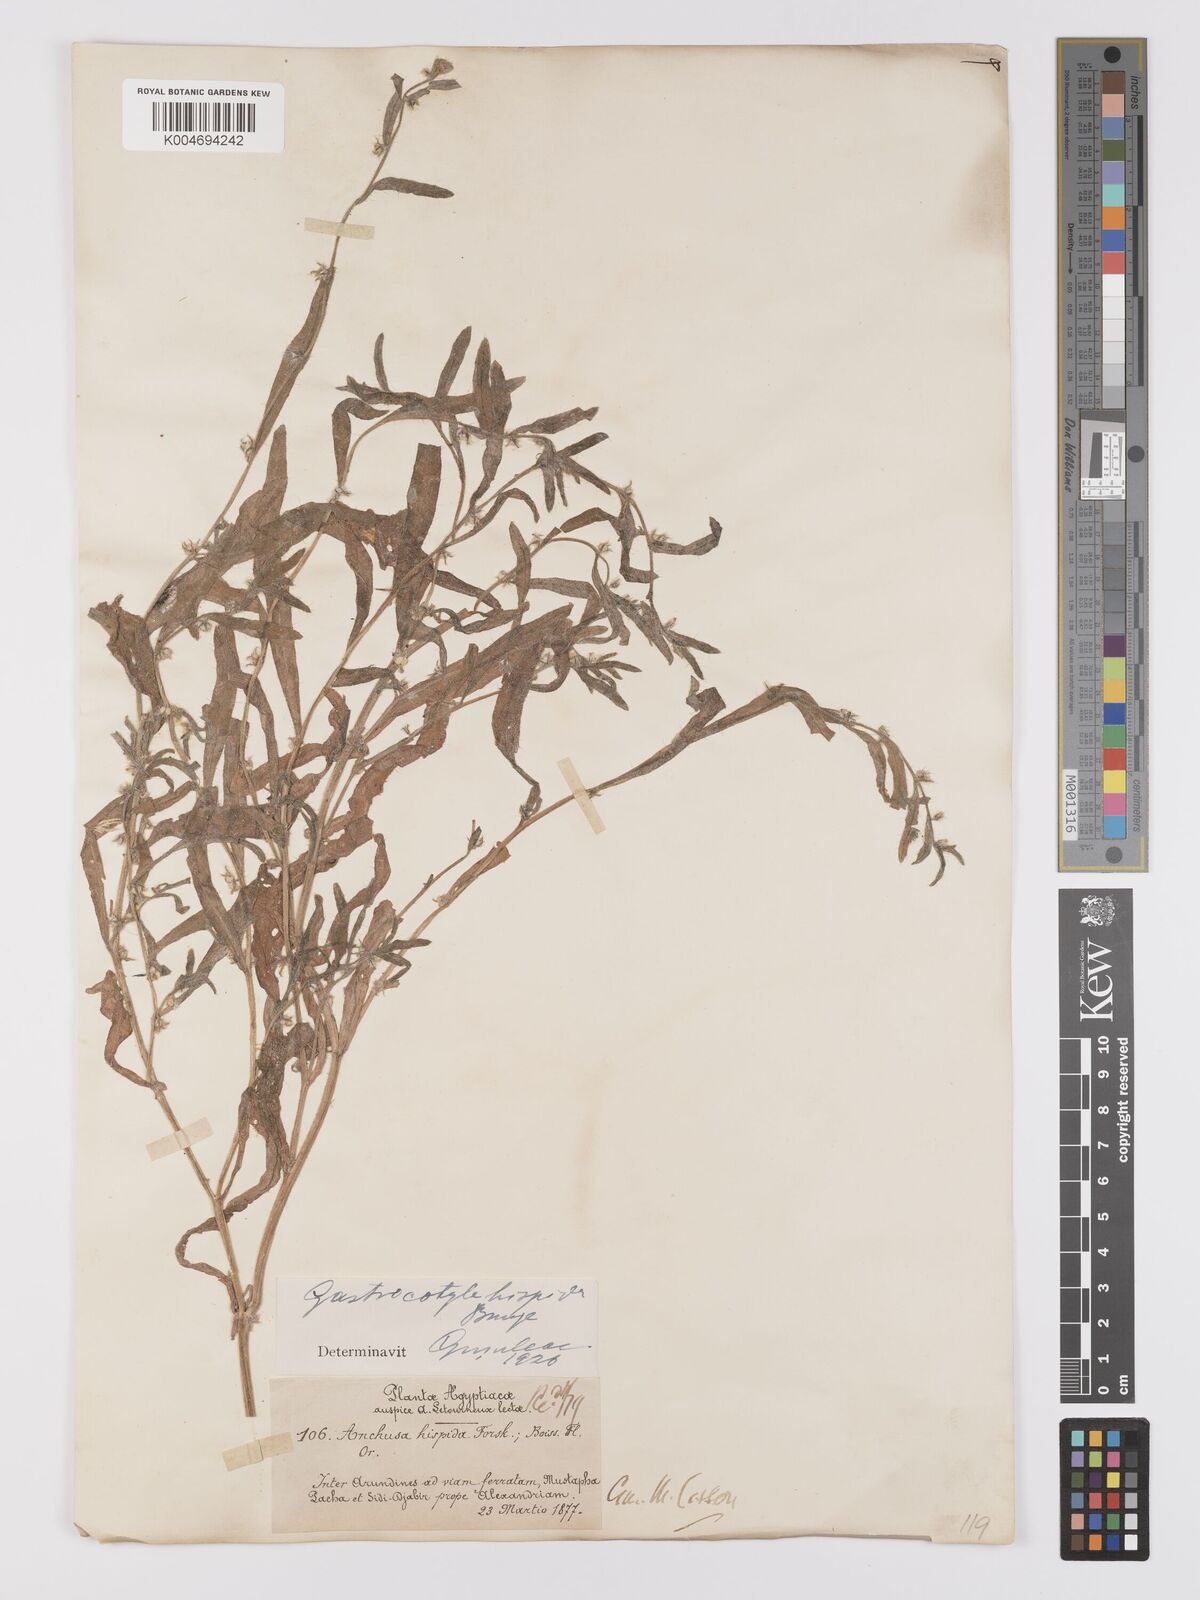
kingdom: Plantae
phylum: Tracheophyta
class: Magnoliopsida
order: Boraginales
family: Boraginaceae
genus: Gastrocotyle
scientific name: Gastrocotyle hispida
